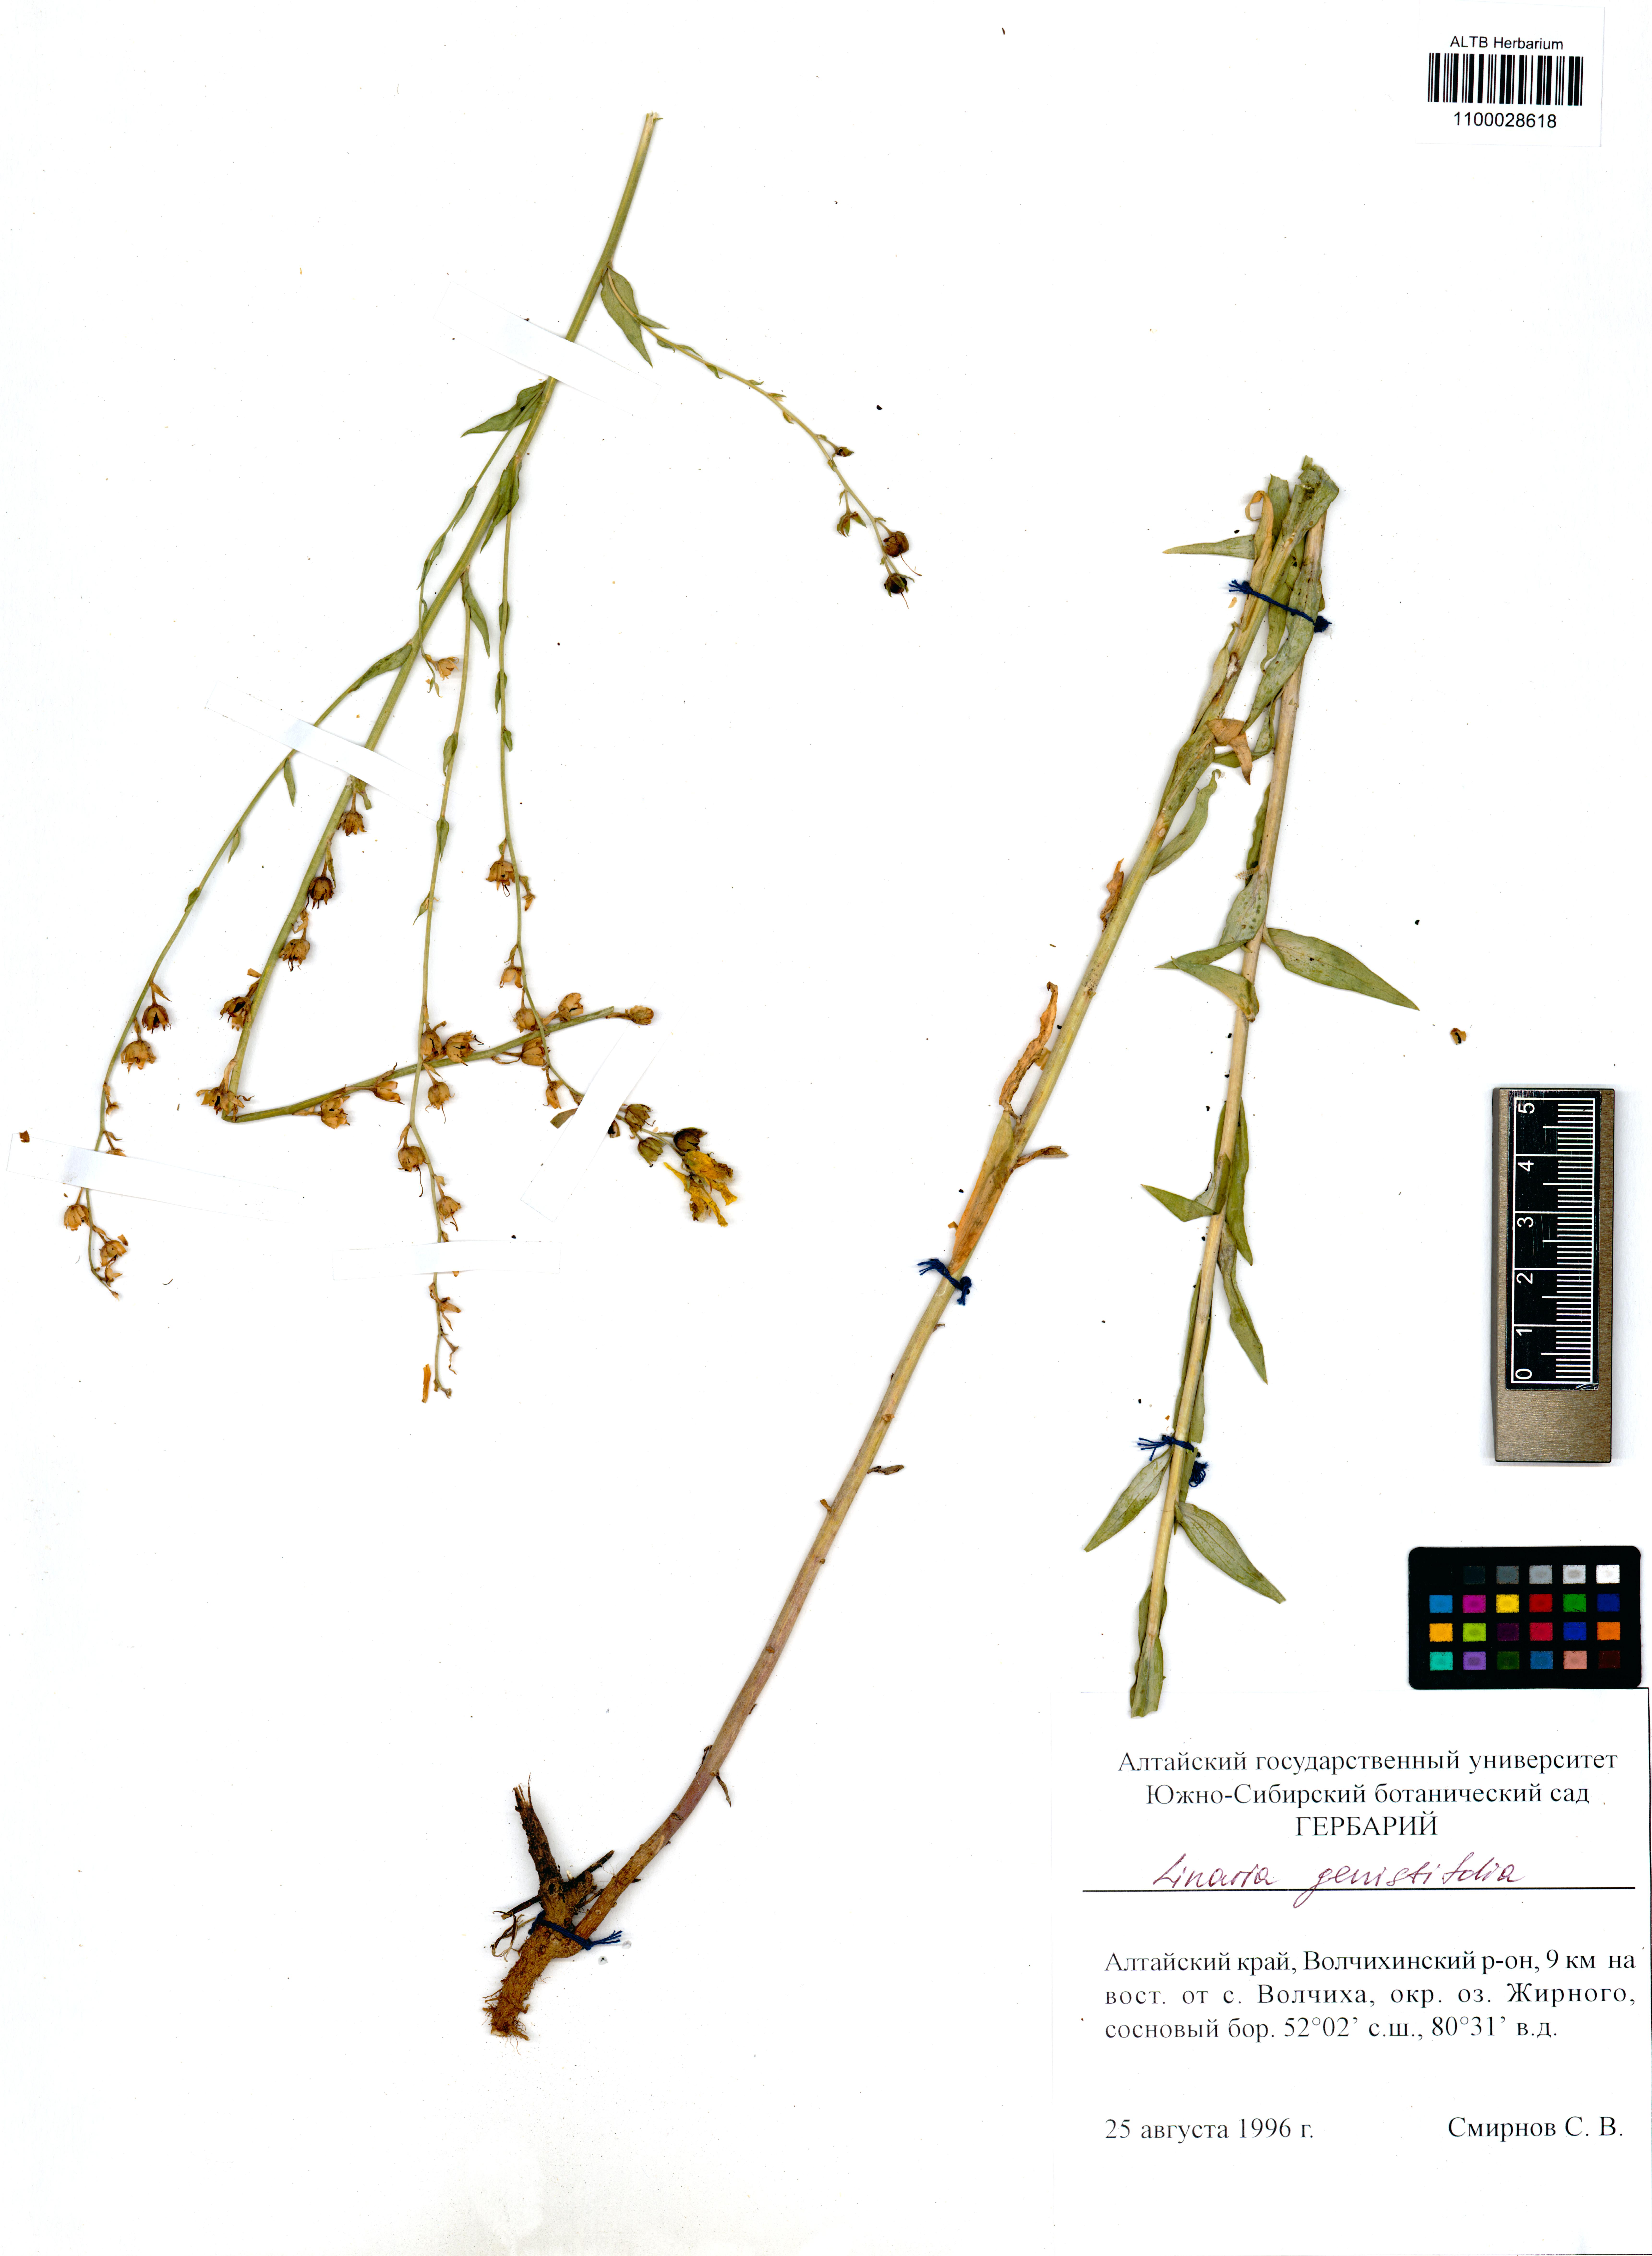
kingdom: Plantae
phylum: Tracheophyta
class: Magnoliopsida
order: Lamiales
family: Plantaginaceae
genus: Linaria
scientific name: Linaria genistifolia
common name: Broomleaf toadflax
